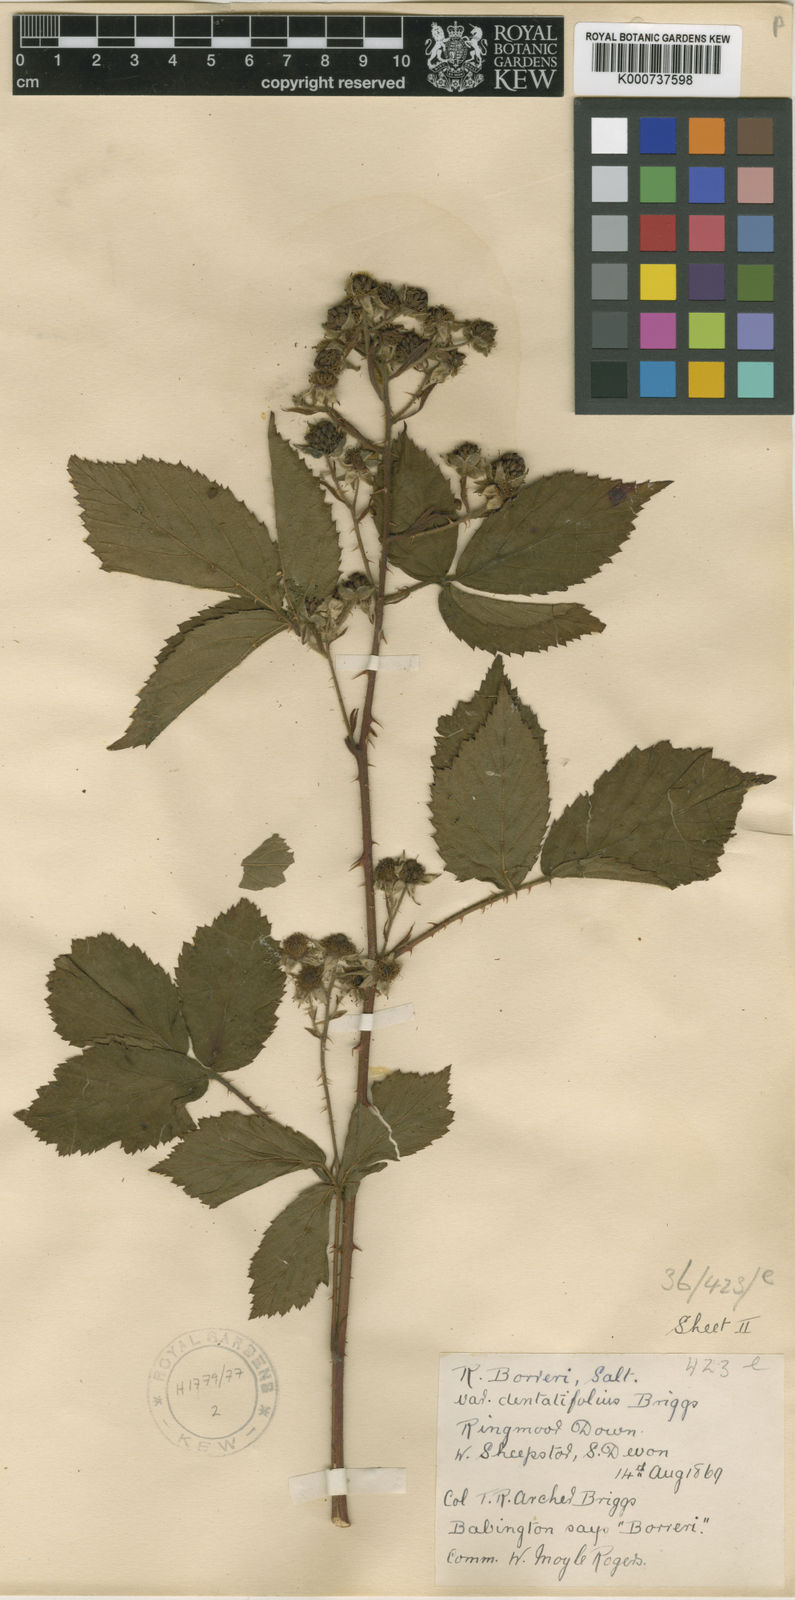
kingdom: Plantae
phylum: Tracheophyta
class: Magnoliopsida
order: Rosales
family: Rosaceae
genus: Rubus
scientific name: Rubus
